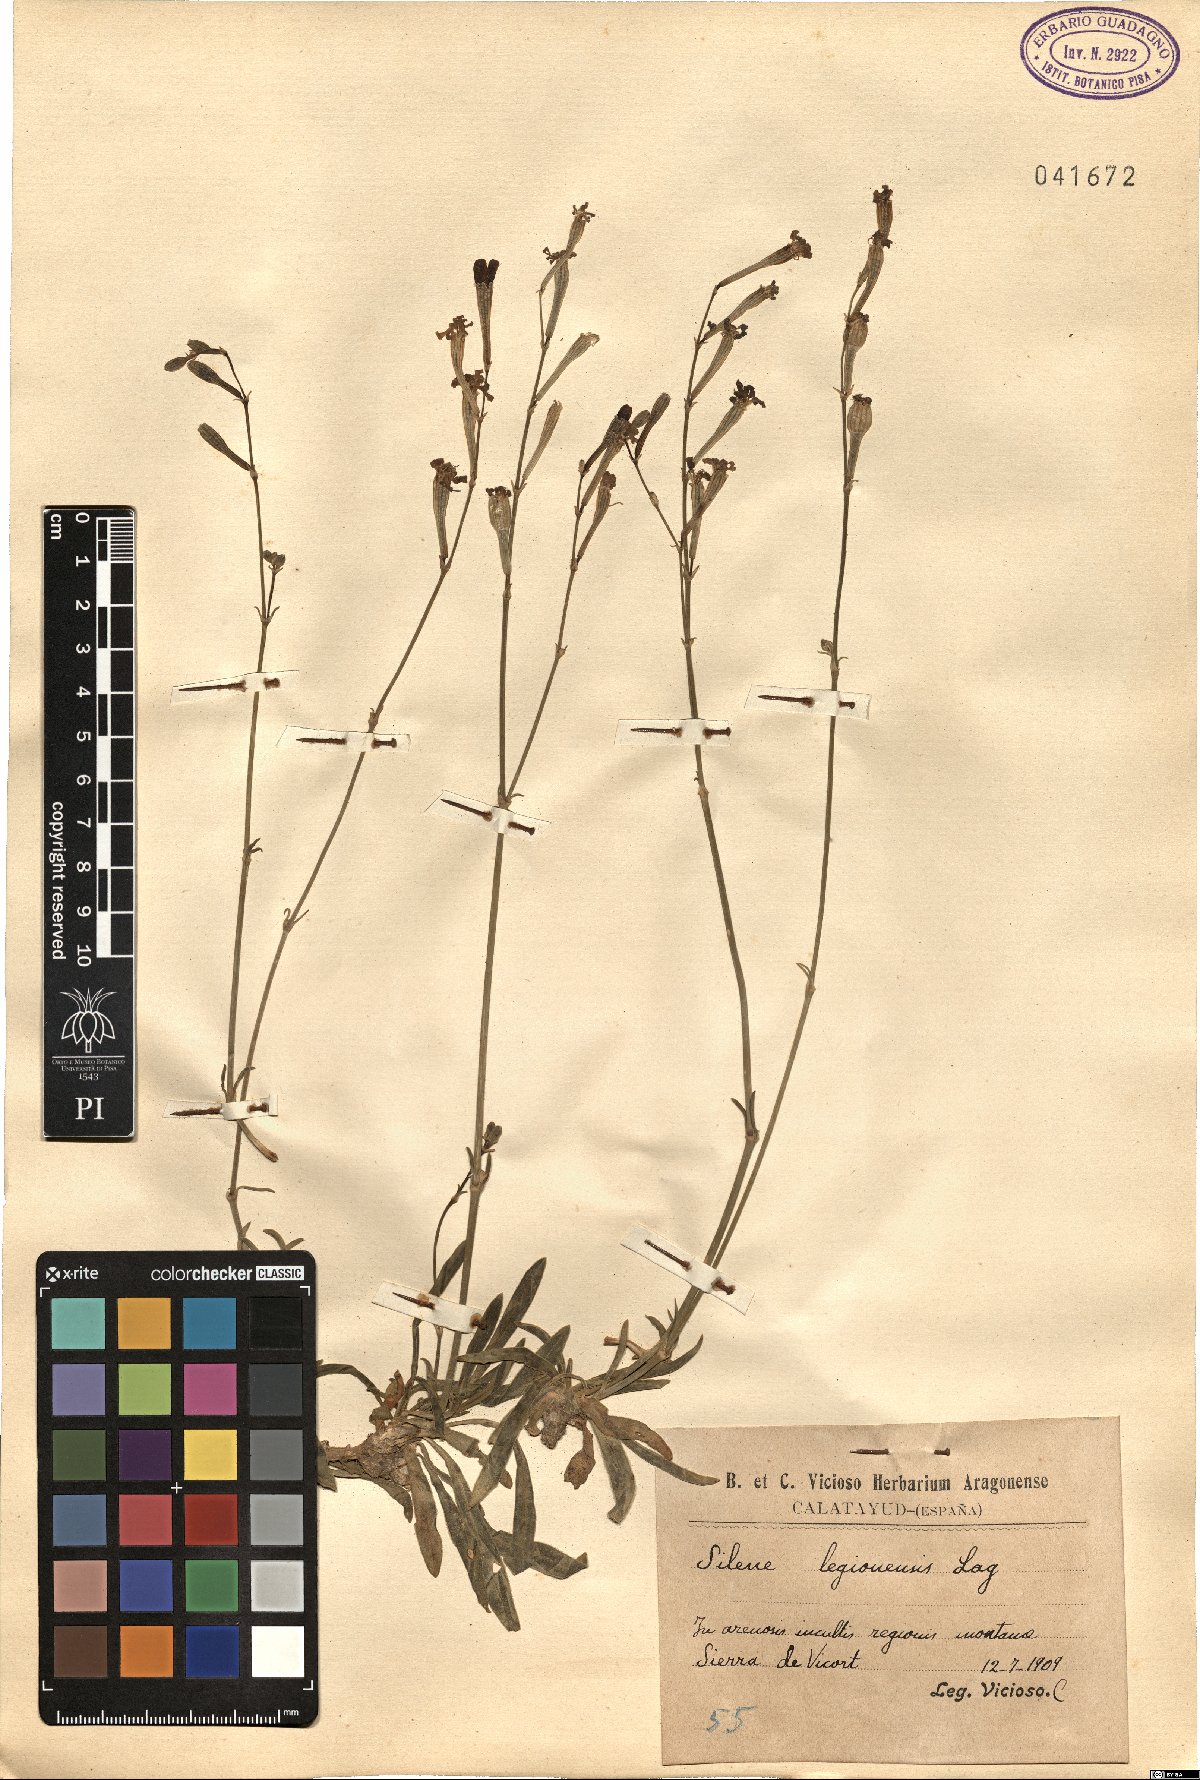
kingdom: Plantae
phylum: Tracheophyta
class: Magnoliopsida
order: Caryophyllales
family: Caryophyllaceae
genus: Silene
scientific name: Silene legionensis
